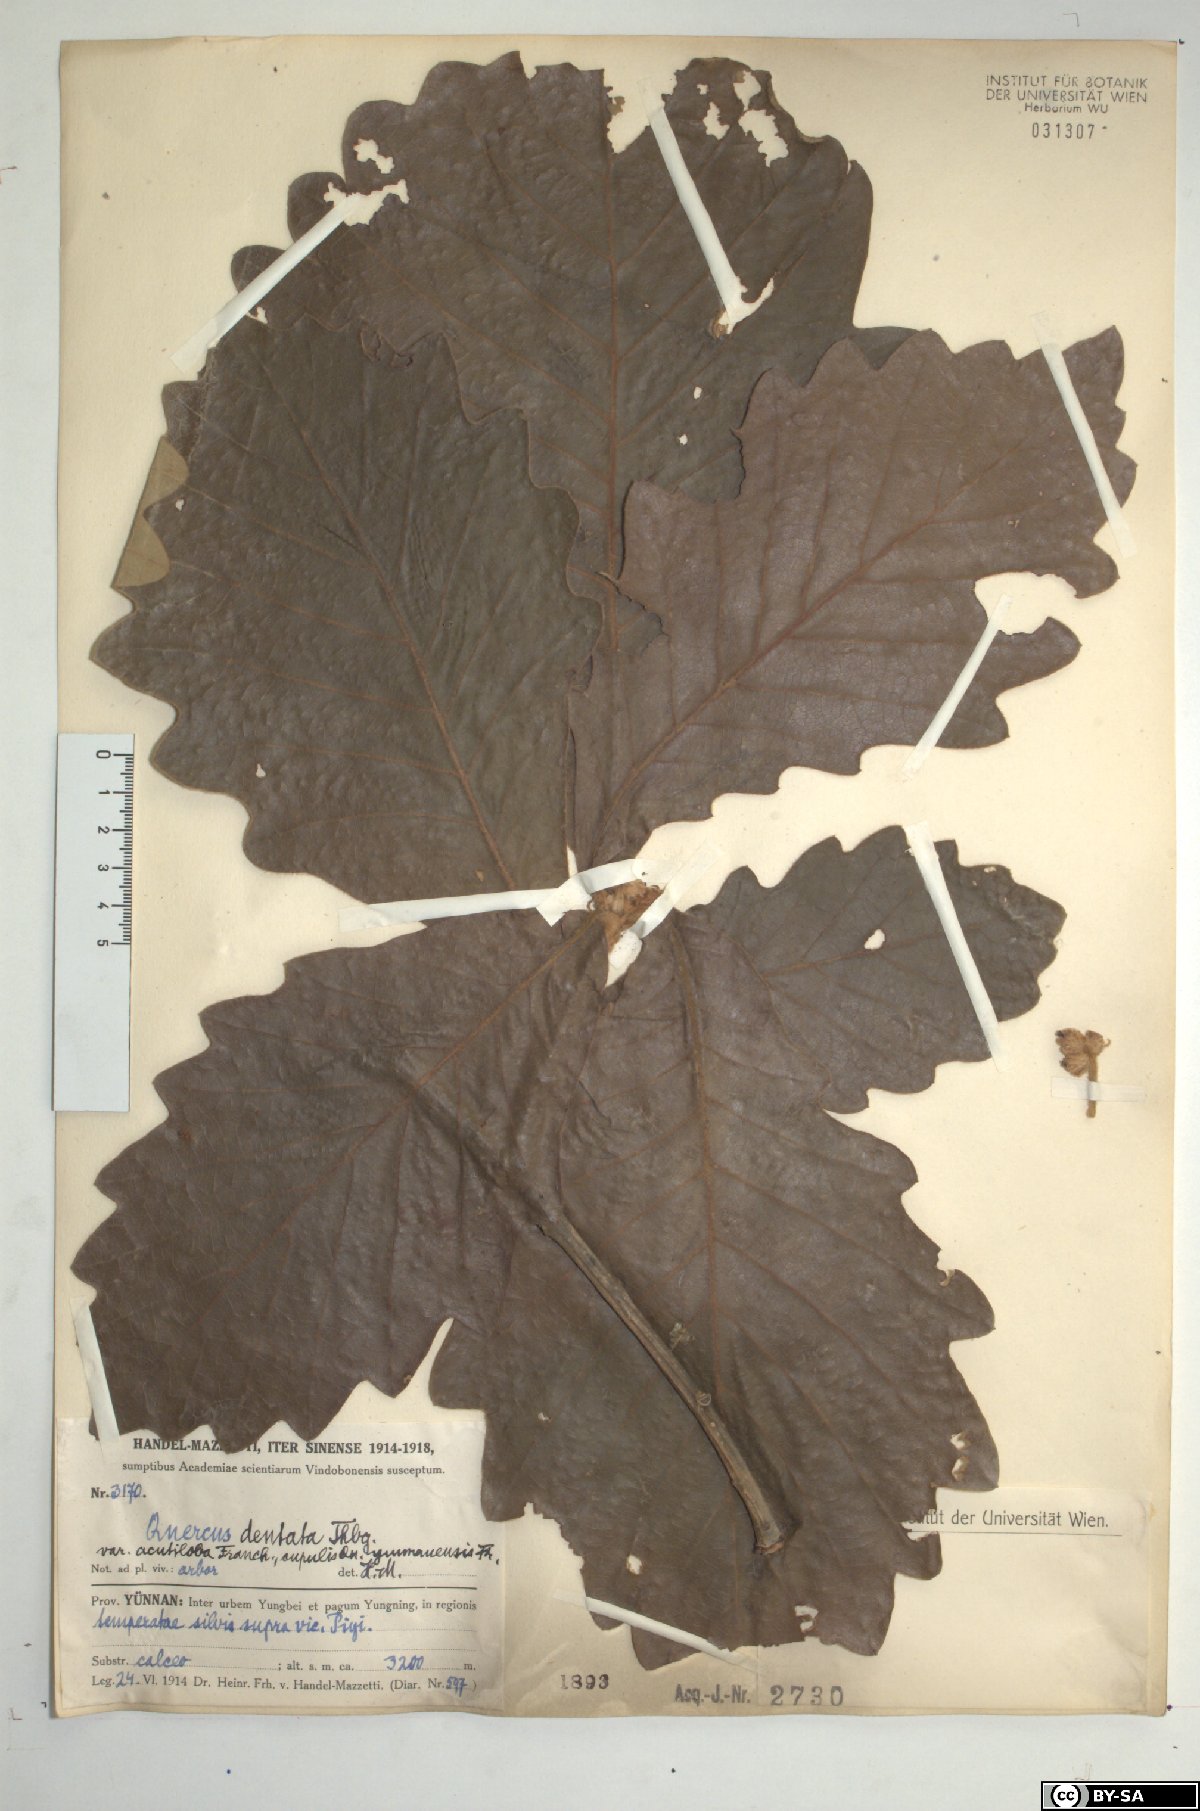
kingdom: Plantae
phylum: Tracheophyta
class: Magnoliopsida
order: Fagales
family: Fagaceae
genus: Quercus
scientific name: Quercus dentata
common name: Daimyo oak
